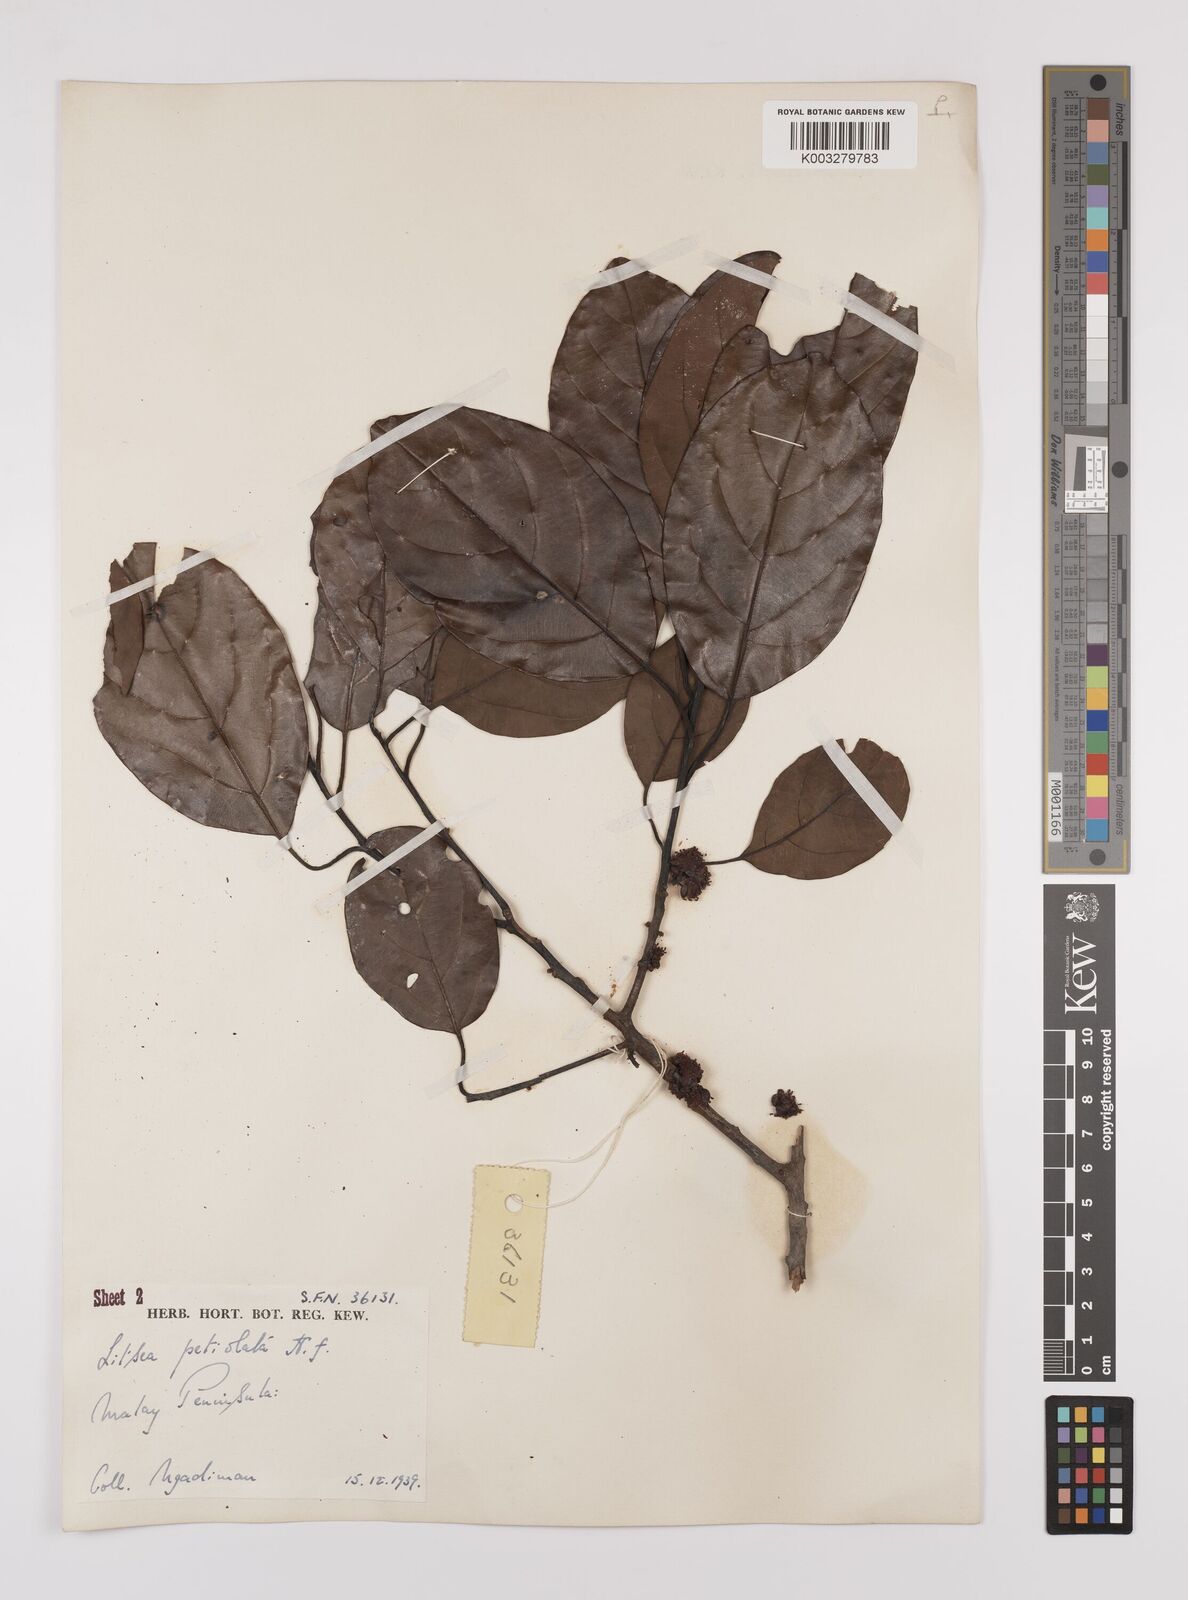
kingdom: Plantae
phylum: Tracheophyta
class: Magnoliopsida
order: Laurales
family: Lauraceae
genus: Litsea
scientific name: Litsea elliptica
